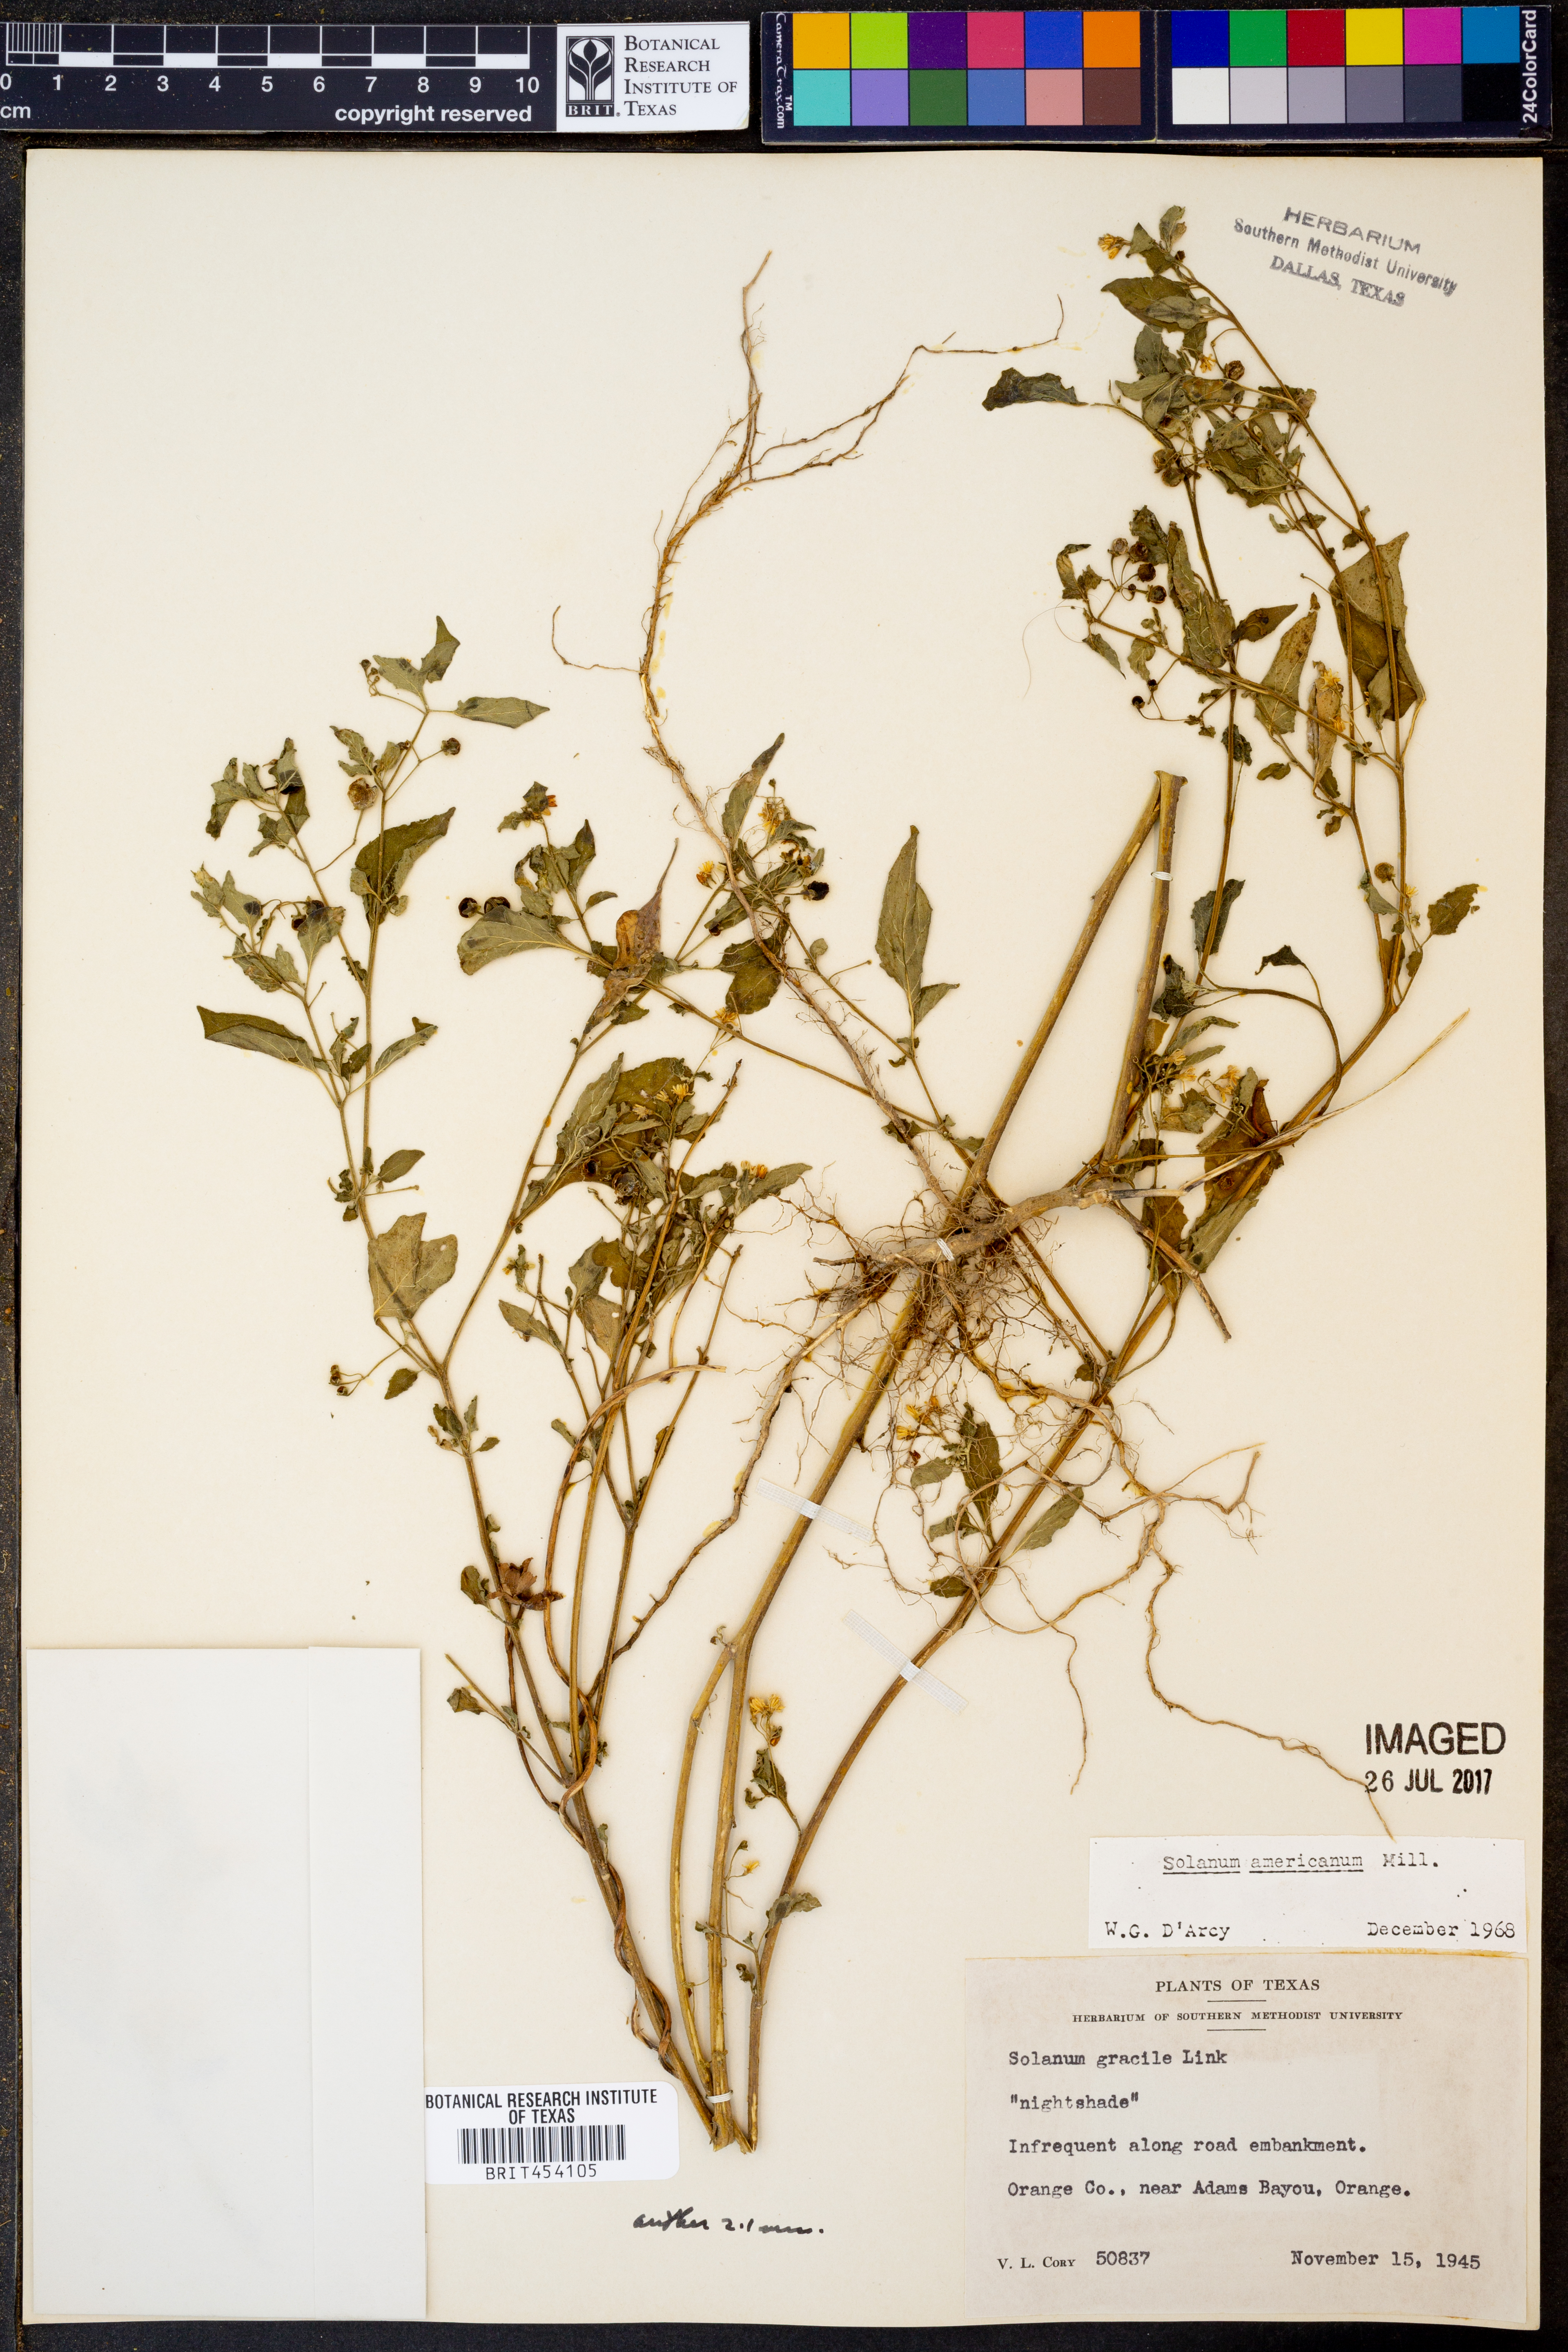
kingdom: Plantae
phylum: Tracheophyta
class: Magnoliopsida
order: Solanales
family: Solanaceae
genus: Solanum
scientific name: Solanum americanum
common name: American black nightshade
